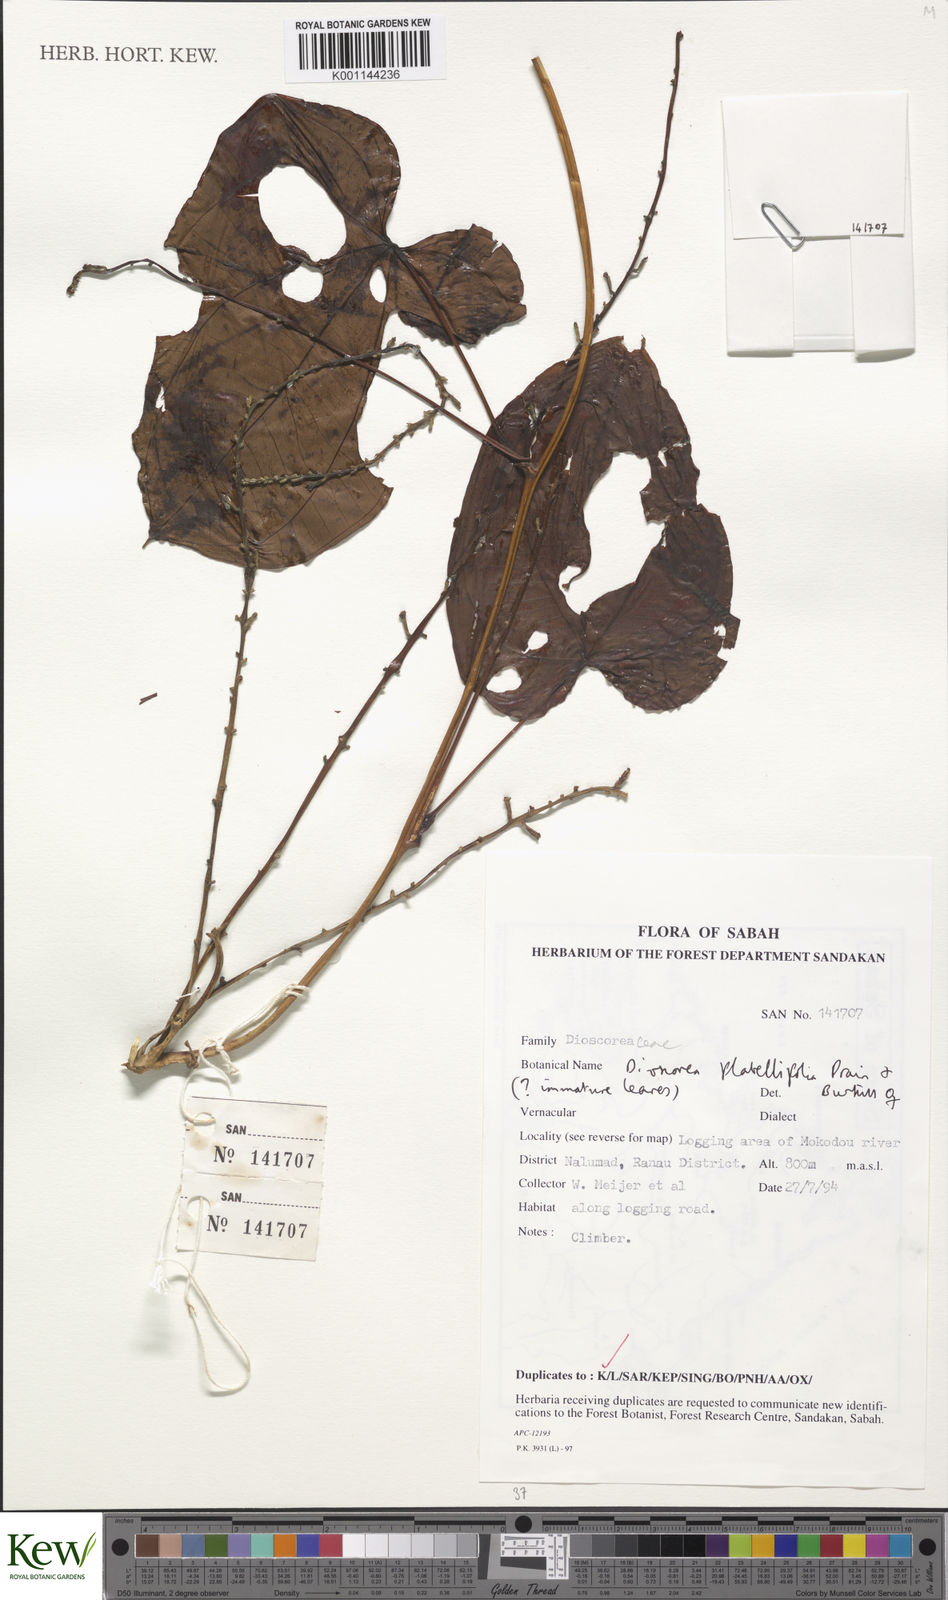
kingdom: Plantae
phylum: Tracheophyta
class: Liliopsida
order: Dioscoreales
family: Dioscoreaceae
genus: Dioscorea
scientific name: Dioscorea flabellifolia
